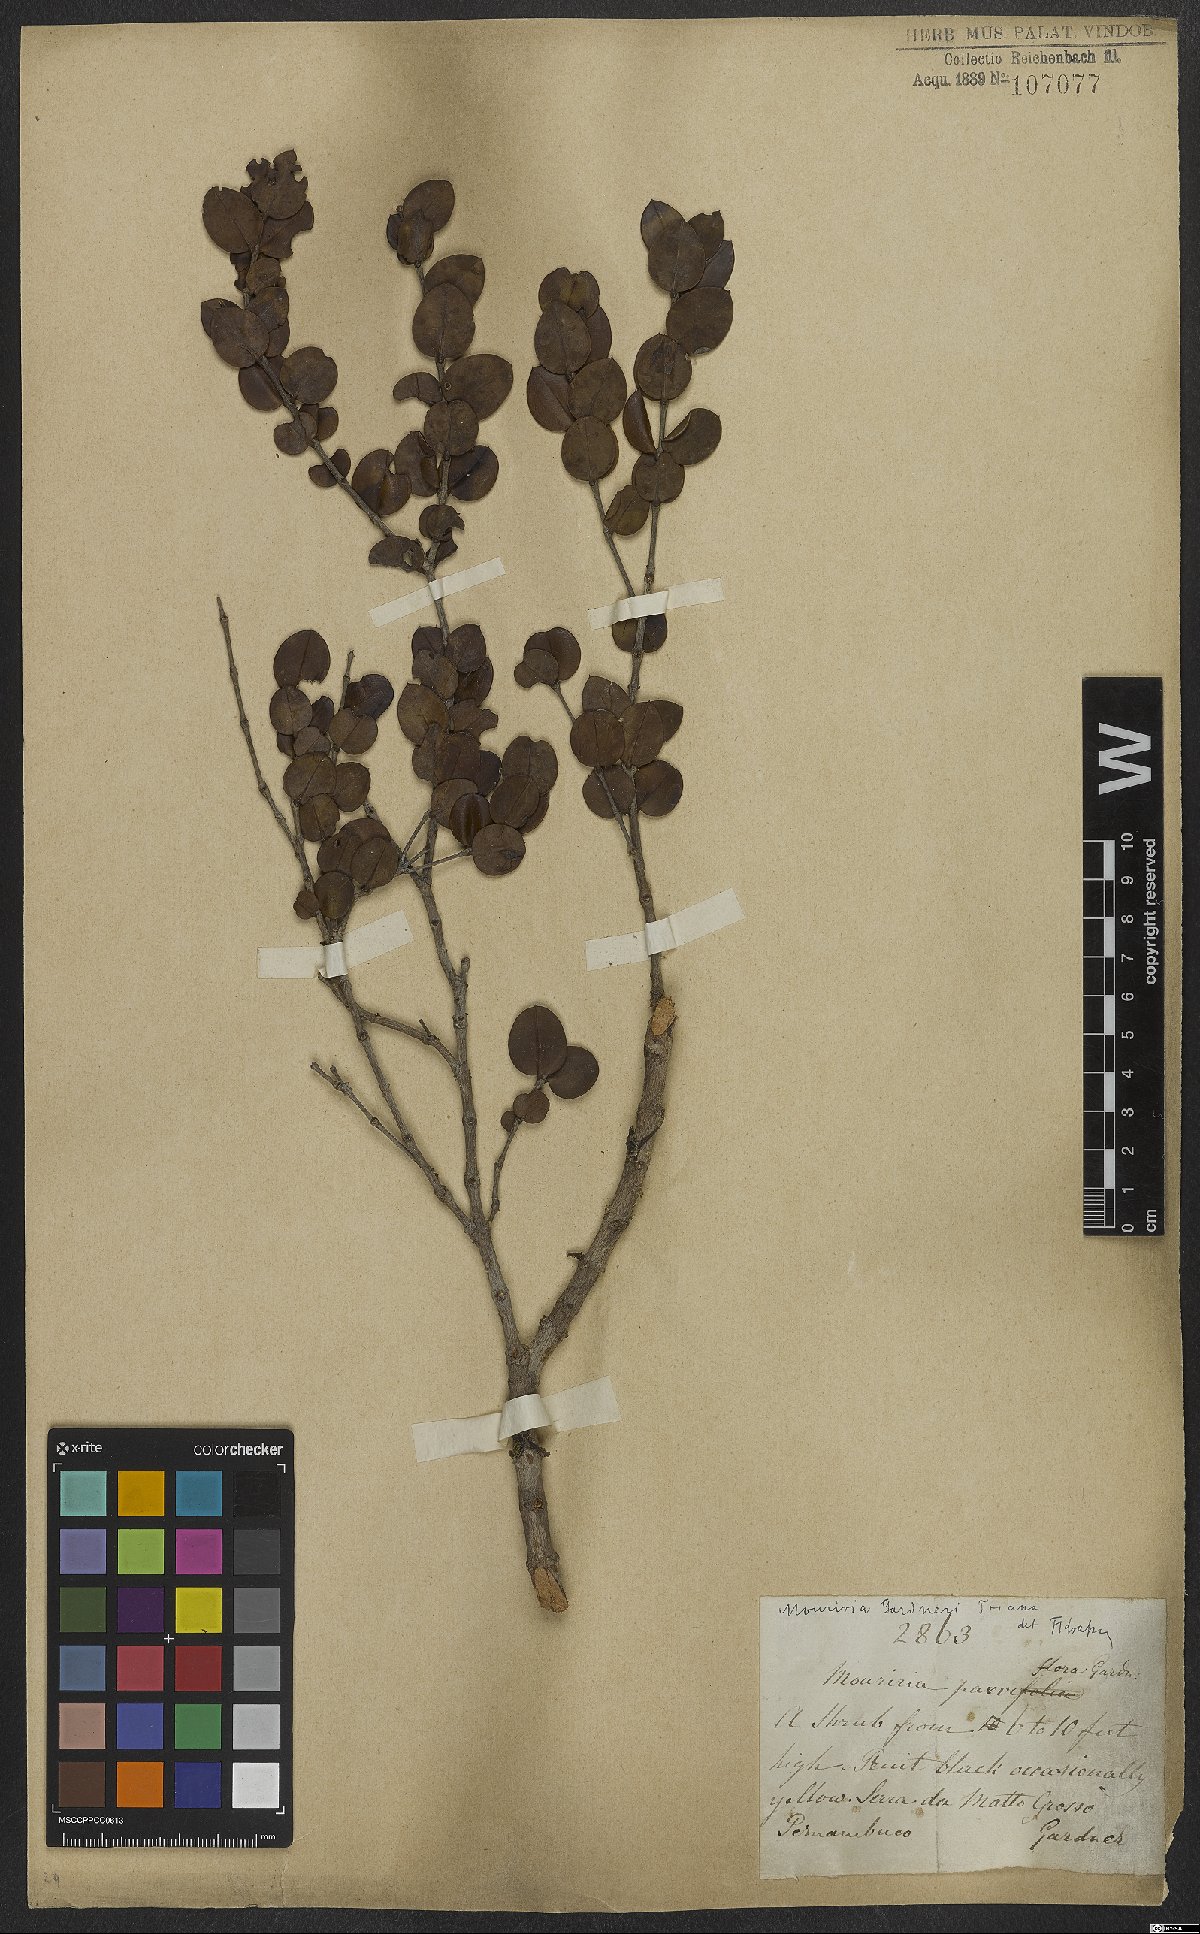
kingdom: Plantae
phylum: Tracheophyta
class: Magnoliopsida
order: Myrtales
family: Melastomataceae
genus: Mouriri
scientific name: Mouriri gardneri
